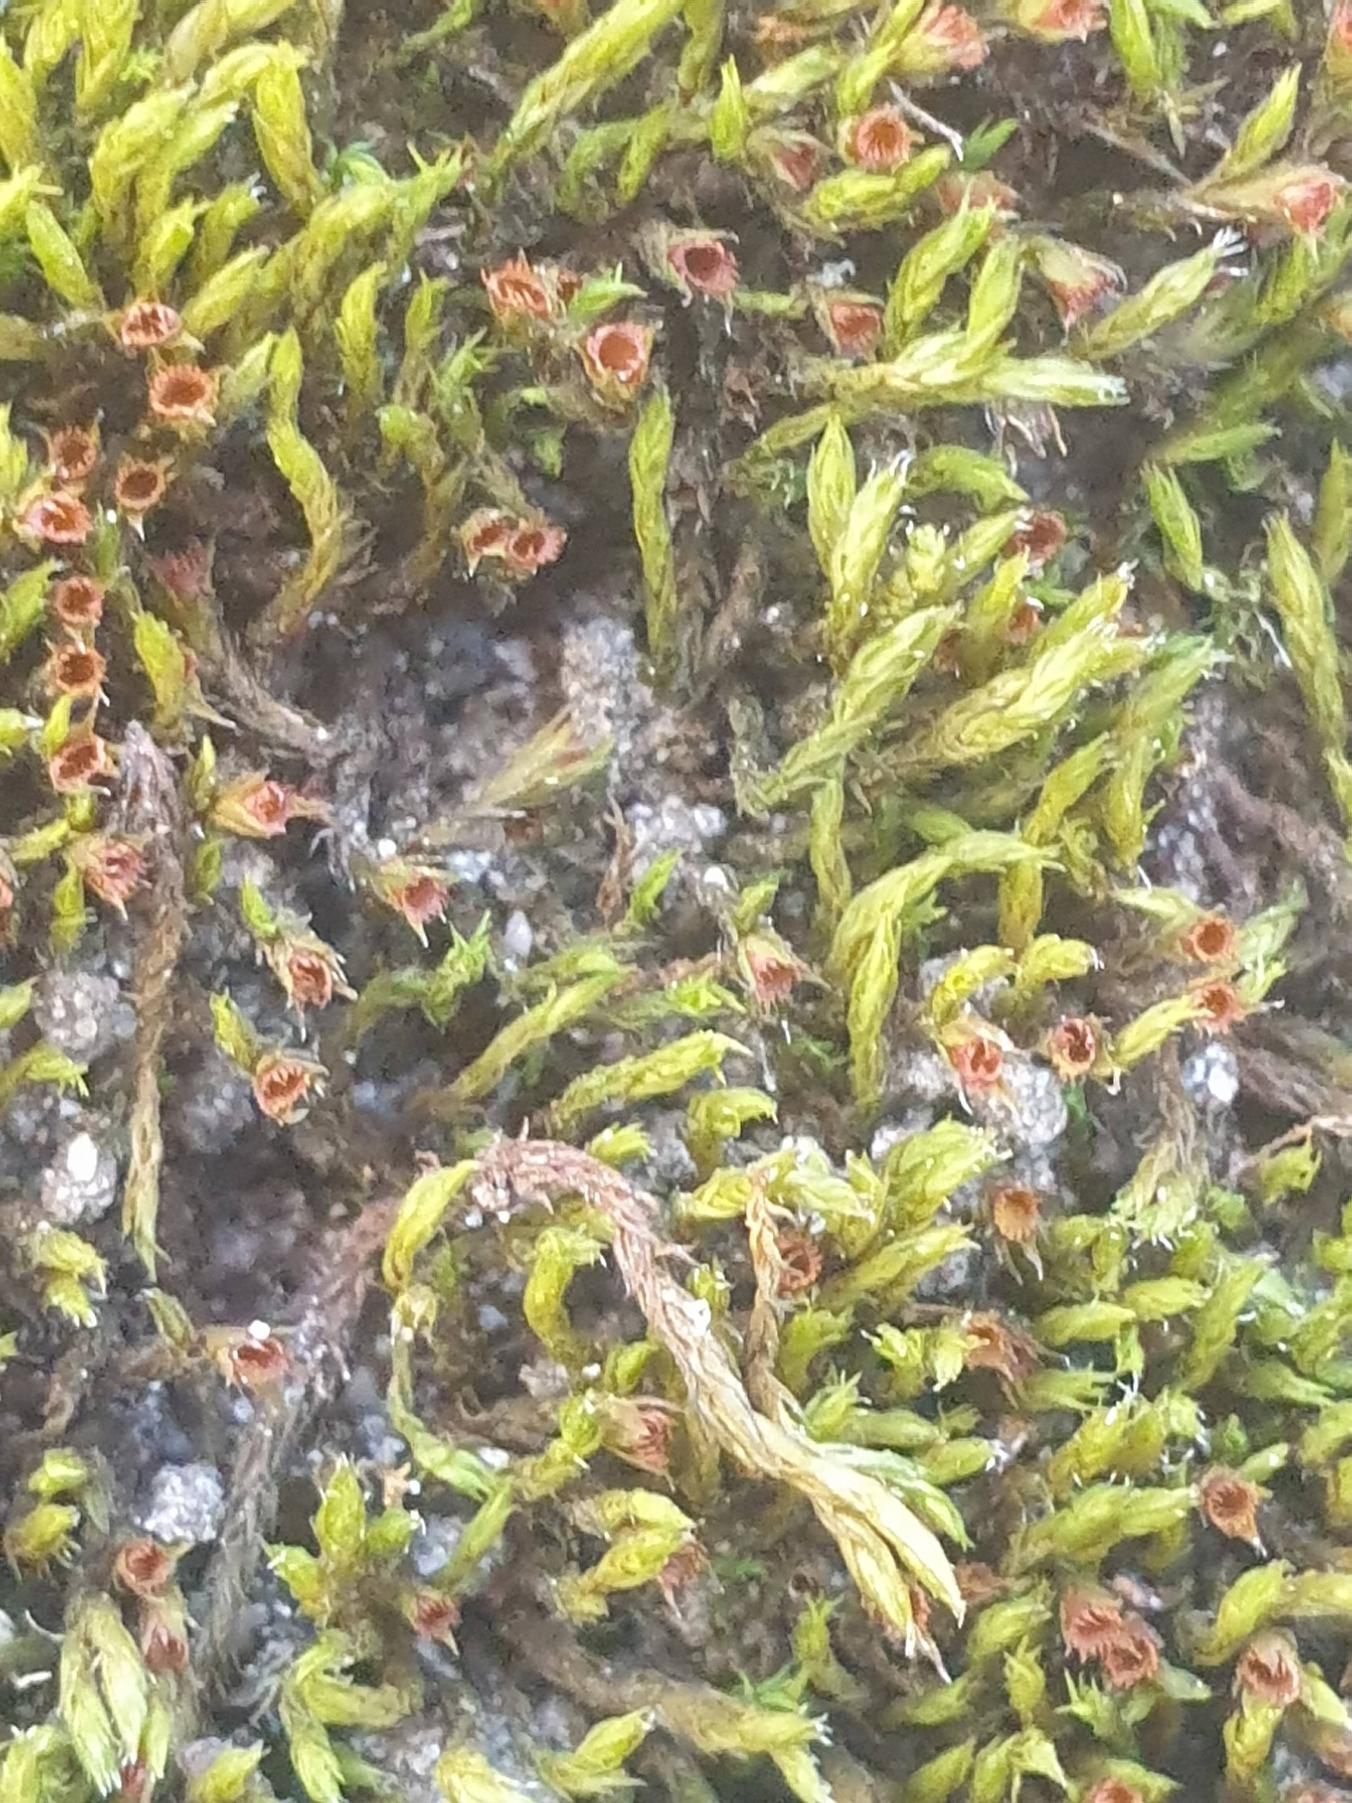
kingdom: Plantae
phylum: Bryophyta
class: Bryopsida
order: Grimmiales
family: Grimmiaceae
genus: Schistidium
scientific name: Schistidium apocarpum
